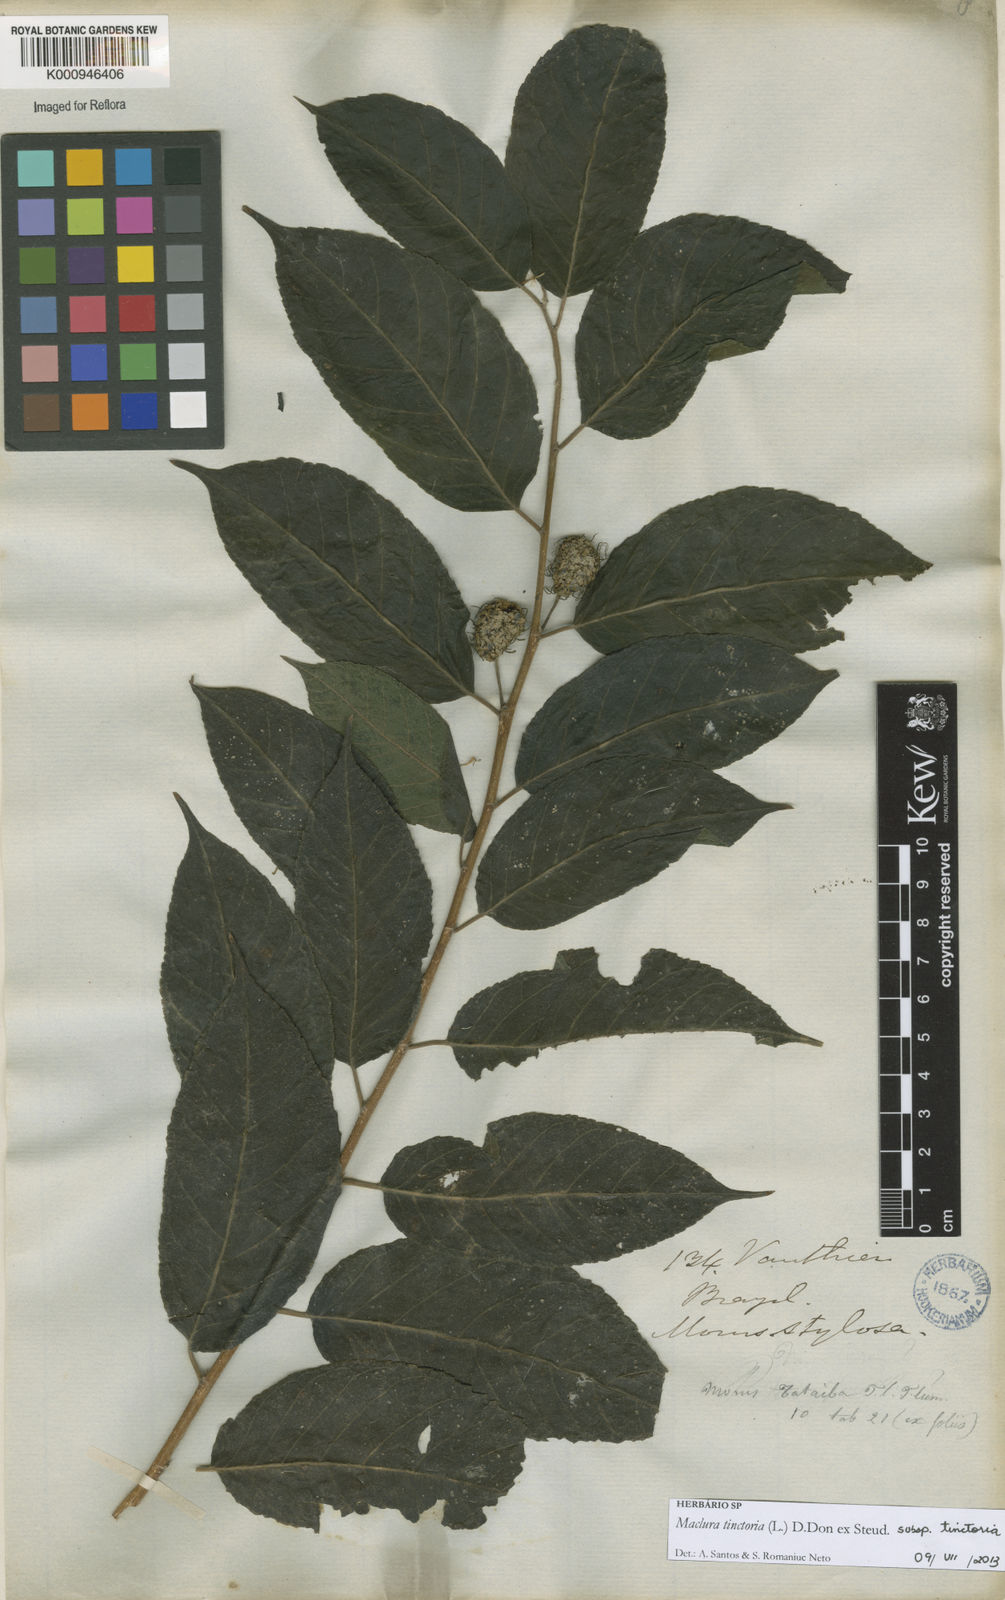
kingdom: Plantae
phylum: Tracheophyta
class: Magnoliopsida
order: Rosales
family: Moraceae
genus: Maclura
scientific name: Maclura tinctoria
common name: Old fustic
